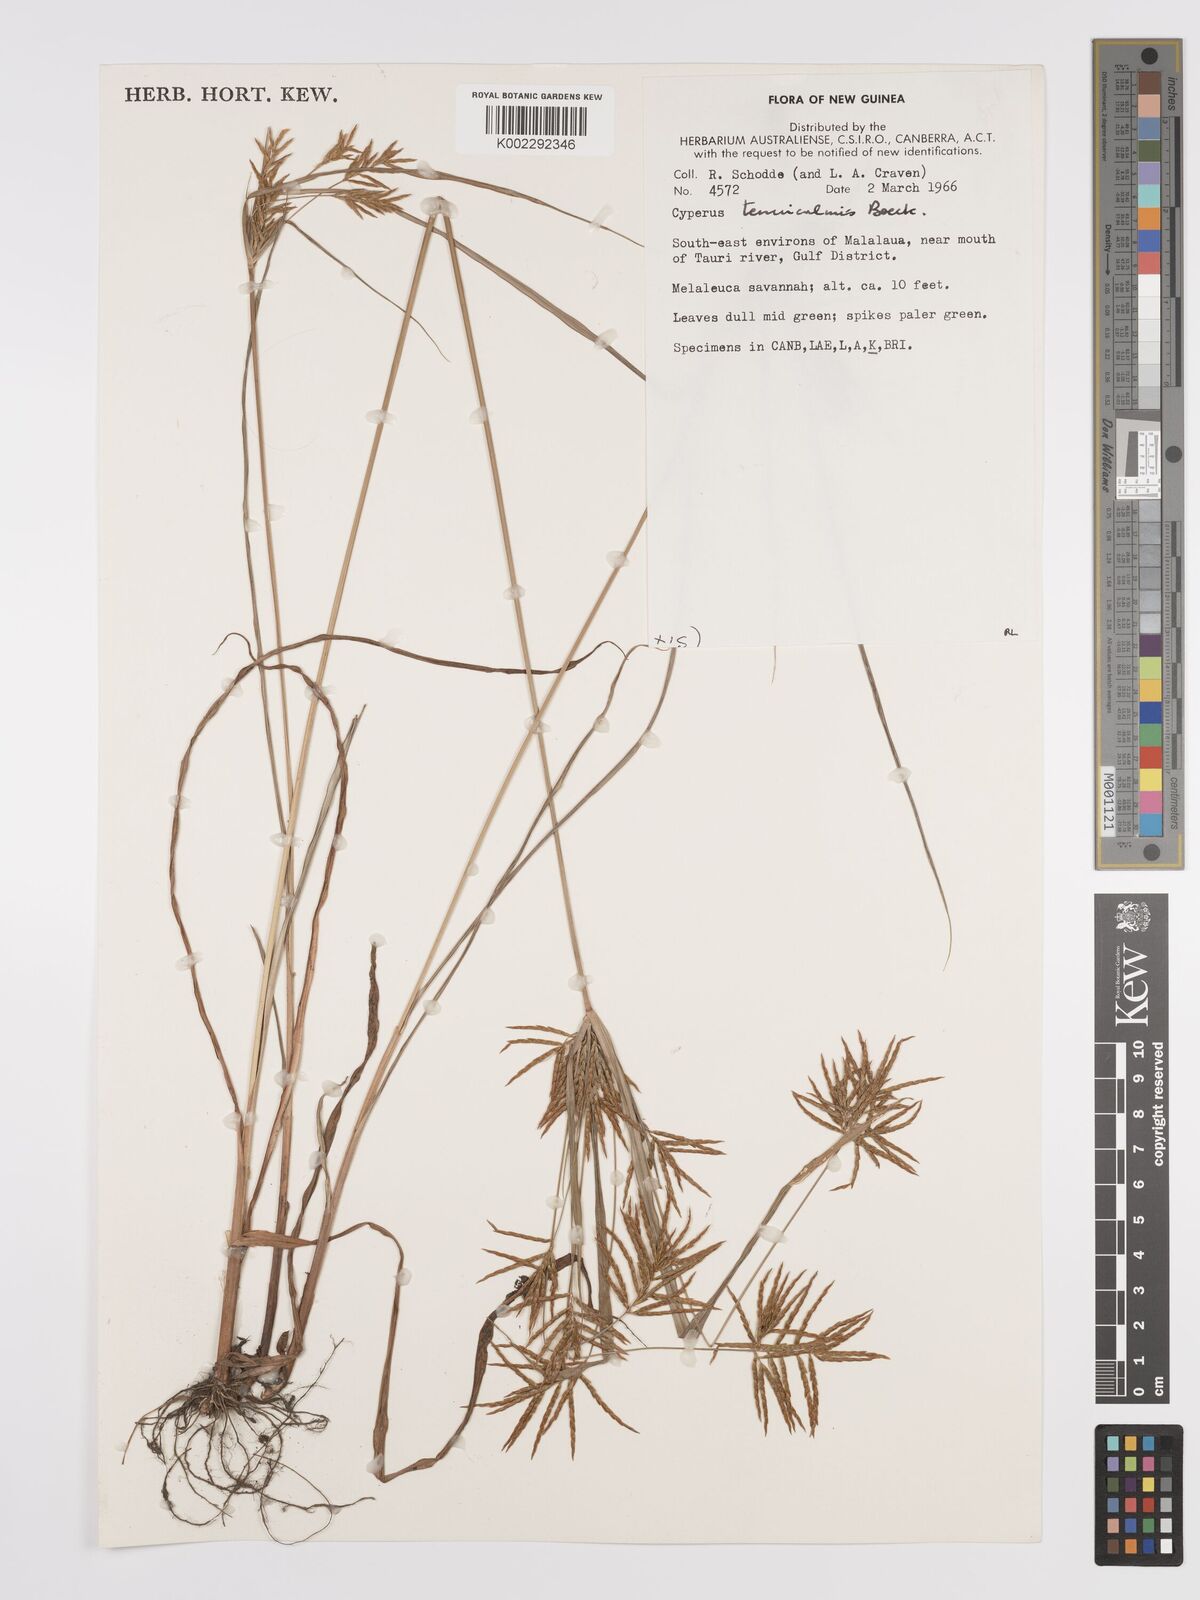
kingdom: Plantae
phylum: Tracheophyta
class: Liliopsida
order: Poales
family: Cyperaceae
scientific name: Cyperaceae
